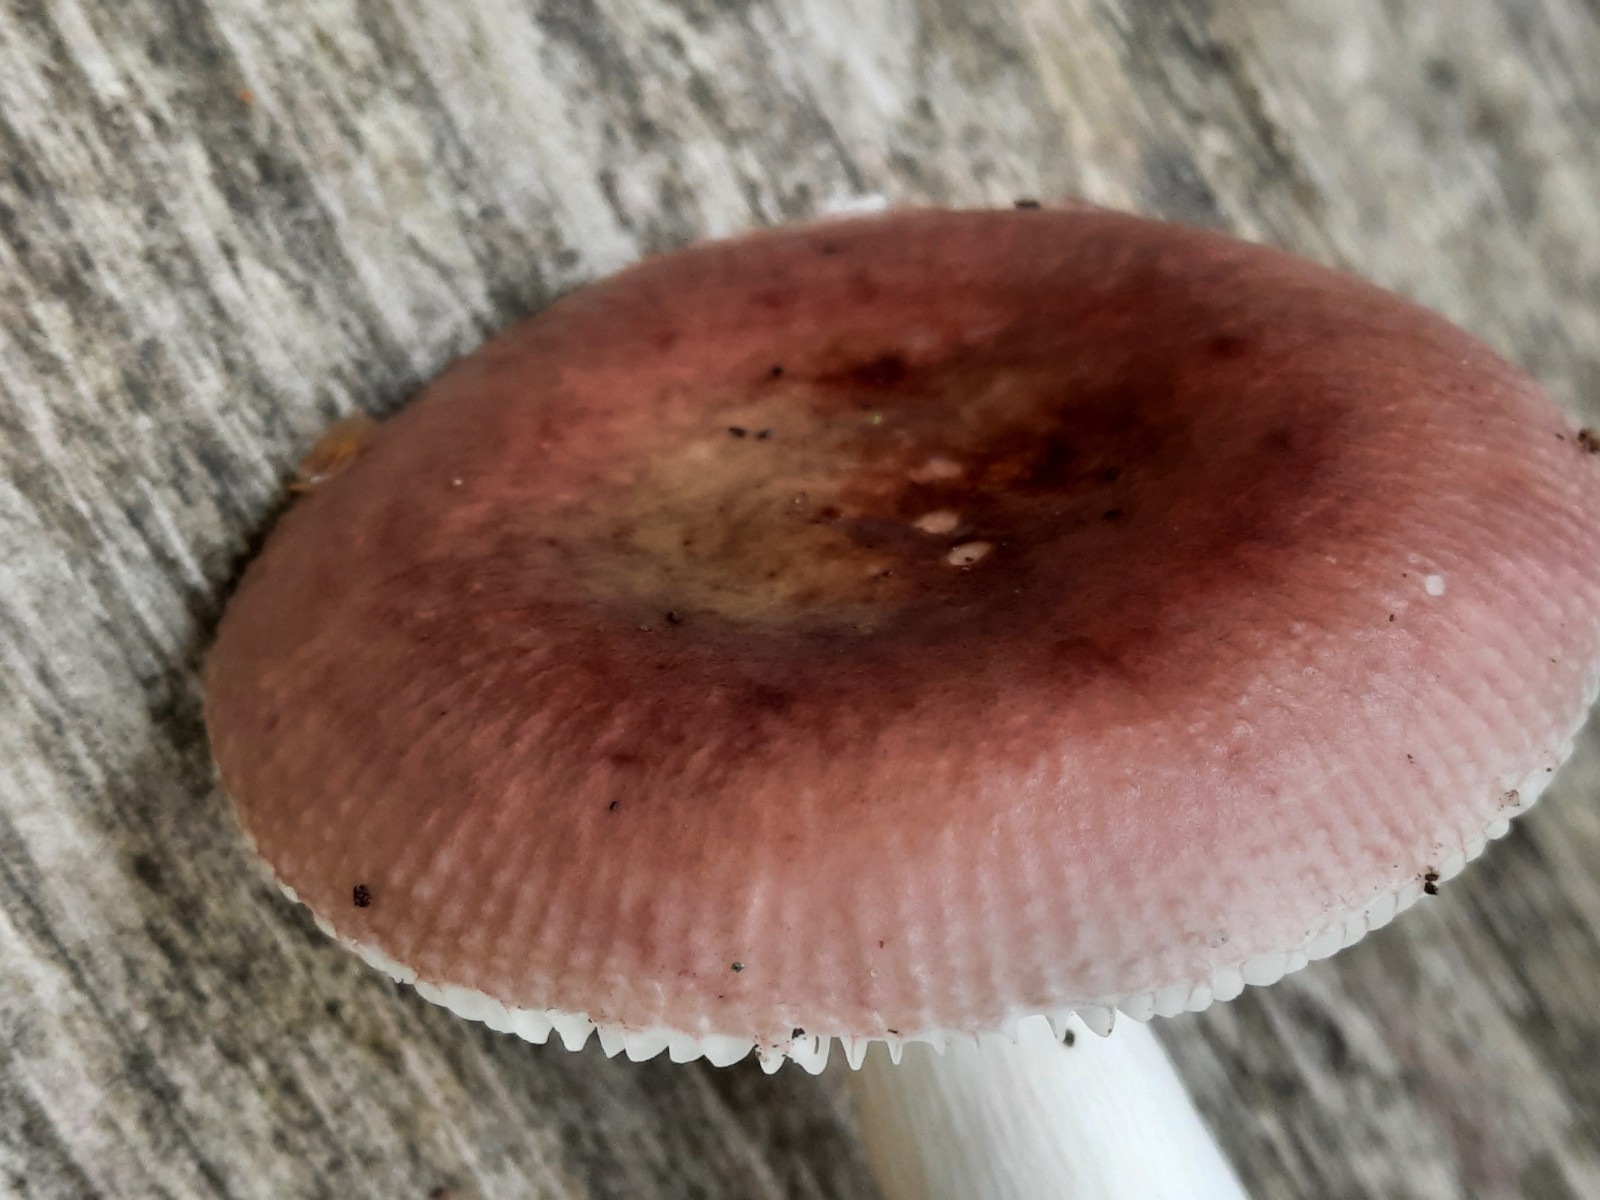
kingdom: Fungi
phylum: Basidiomycota
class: Agaricomycetes
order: Russulales
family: Russulaceae
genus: Russula
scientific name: Russula nitida
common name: året skørhat
